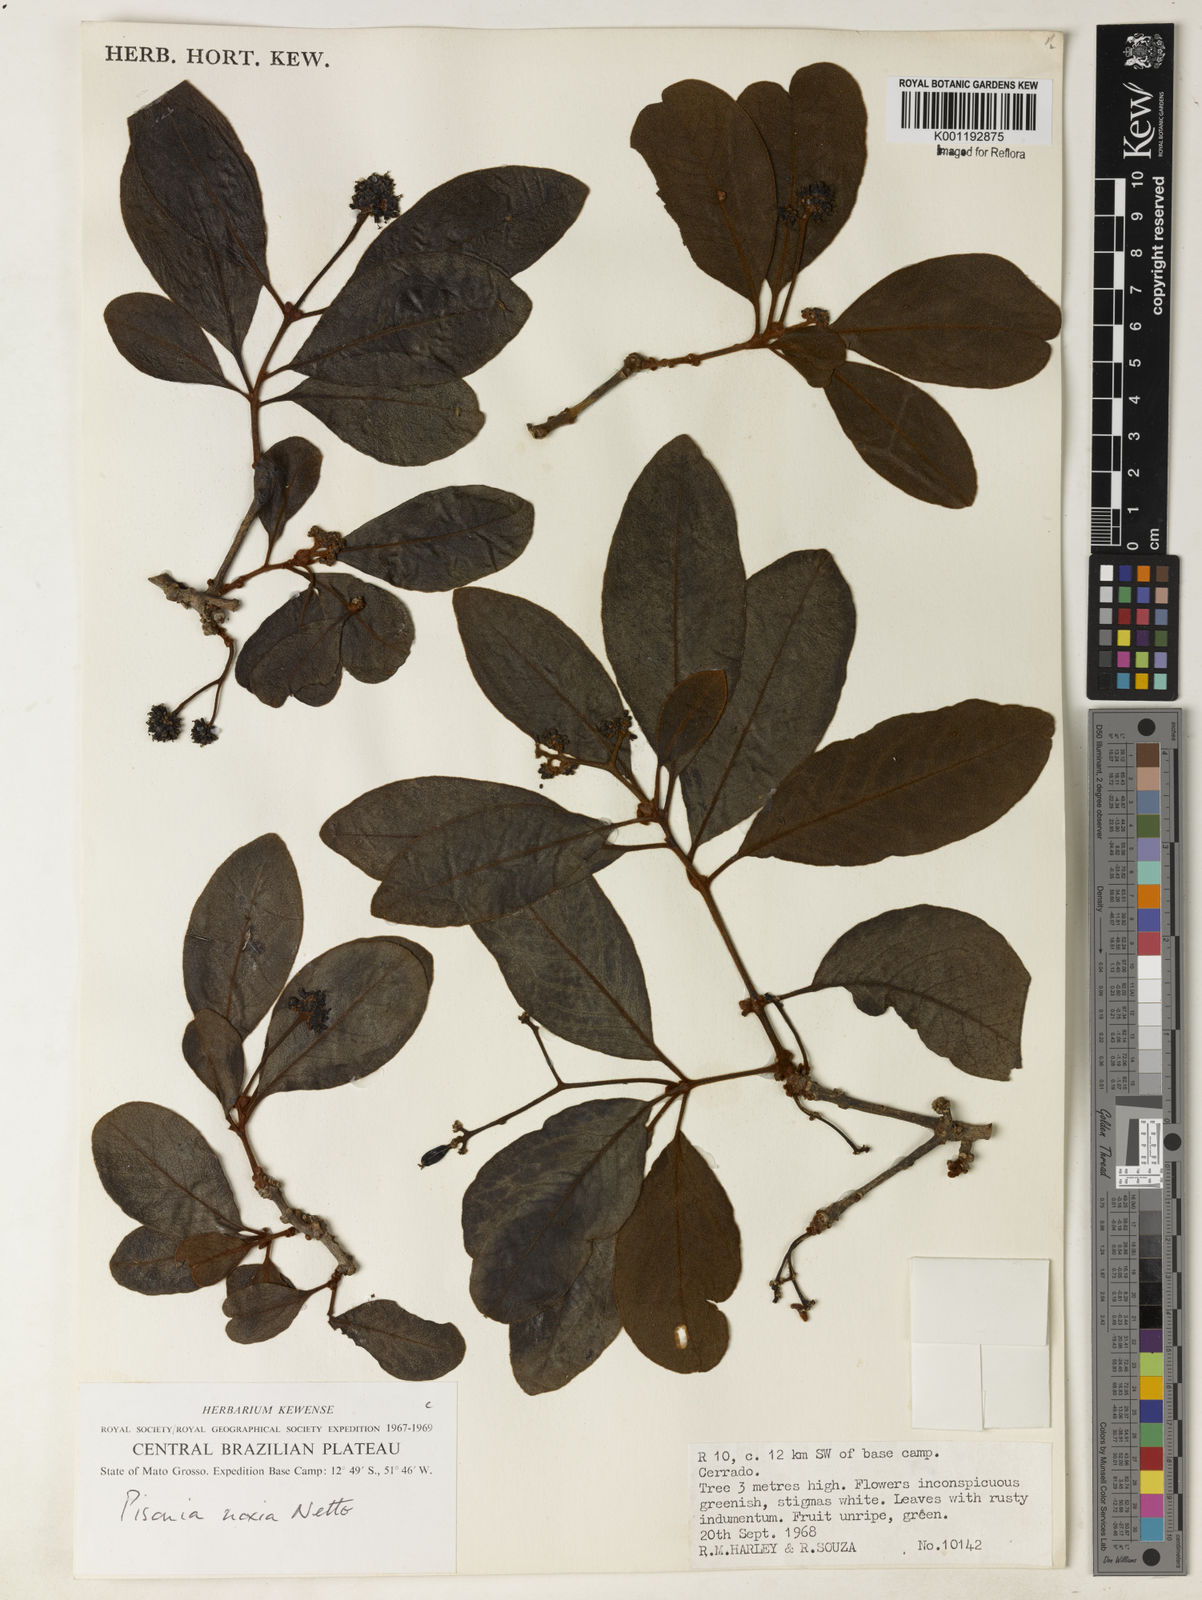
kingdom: Plantae
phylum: Tracheophyta
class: Magnoliopsida
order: Caryophyllales
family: Nyctaginaceae
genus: Guapira
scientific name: Guapira noxia
